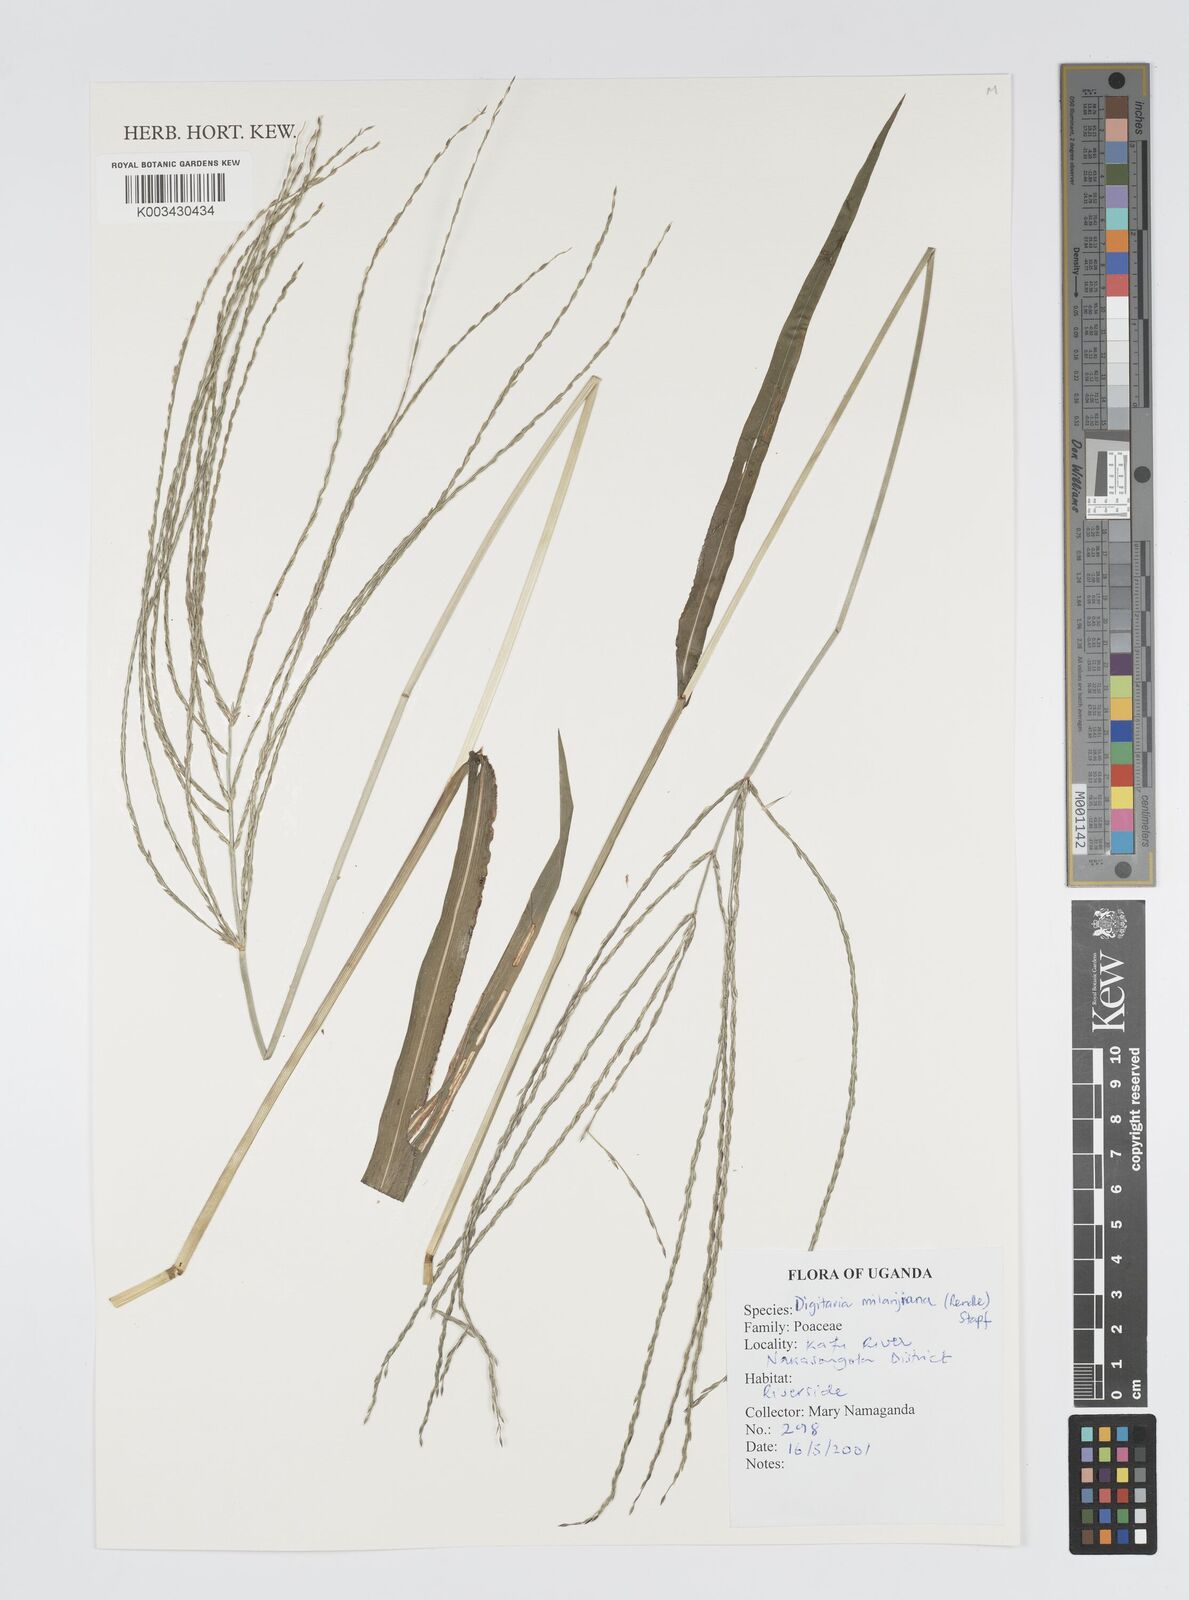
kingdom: Plantae
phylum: Tracheophyta
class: Liliopsida
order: Poales
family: Poaceae
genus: Digitaria
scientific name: Digitaria milanjiana
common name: Madagascar crabgrass
